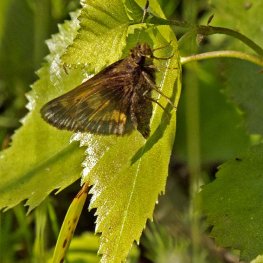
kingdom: Animalia
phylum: Arthropoda
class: Insecta
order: Lepidoptera
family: Hesperiidae
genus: Lon
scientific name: Lon hobomok
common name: Hobomok Skipper
